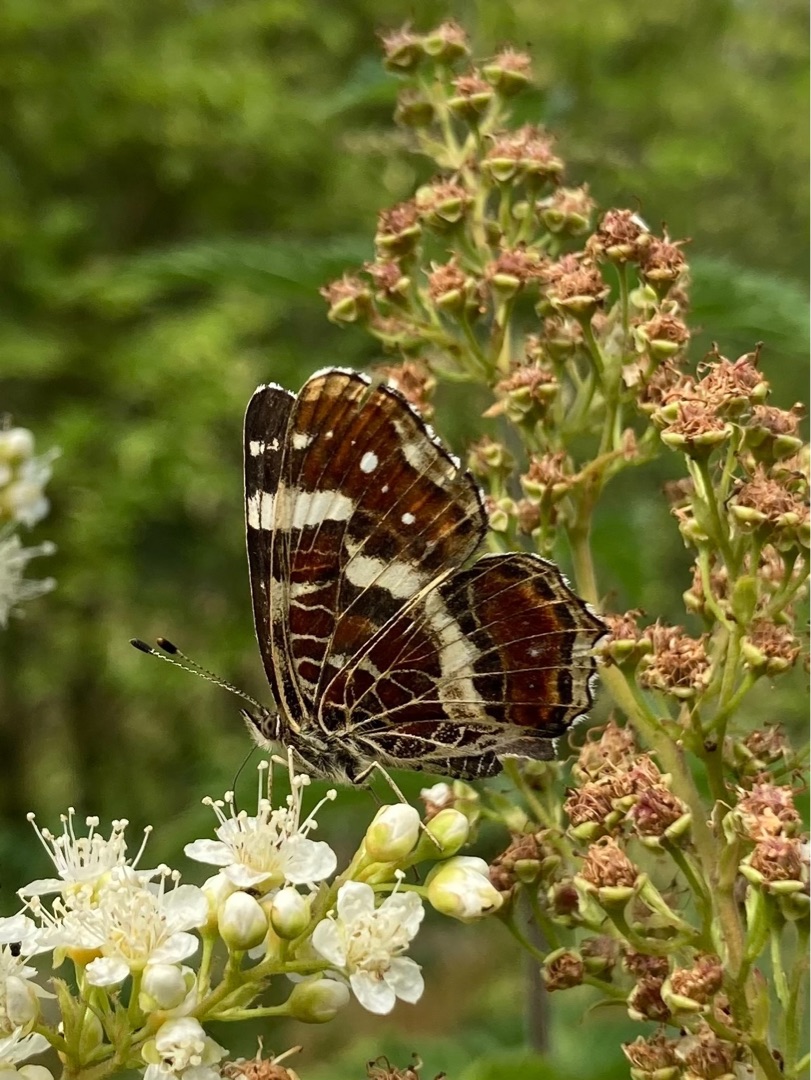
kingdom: Animalia
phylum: Arthropoda
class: Insecta
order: Lepidoptera
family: Nymphalidae
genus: Araschnia
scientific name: Araschnia levana
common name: Nældesommerfugl
